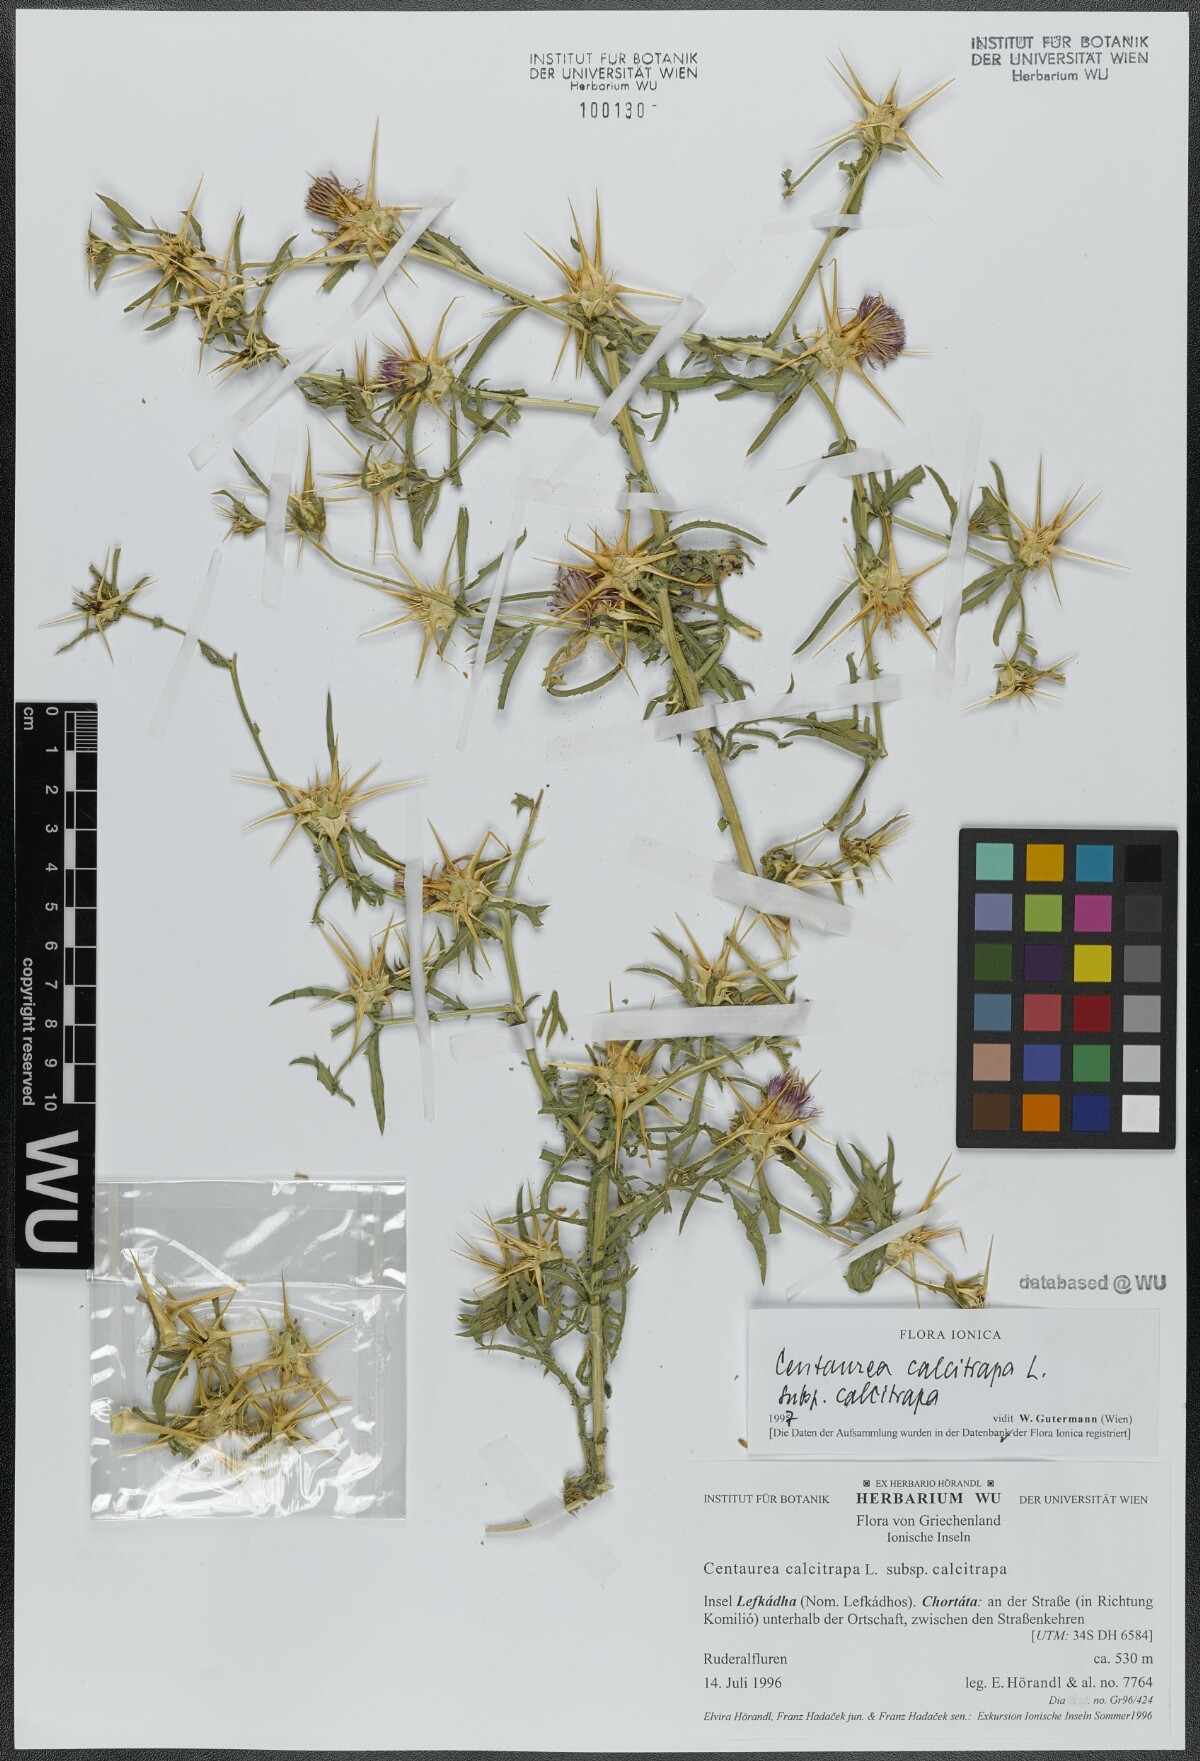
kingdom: Plantae
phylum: Tracheophyta
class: Magnoliopsida
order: Asterales
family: Asteraceae
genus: Centaurea
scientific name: Centaurea calcitrapa
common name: Red star-thistle
